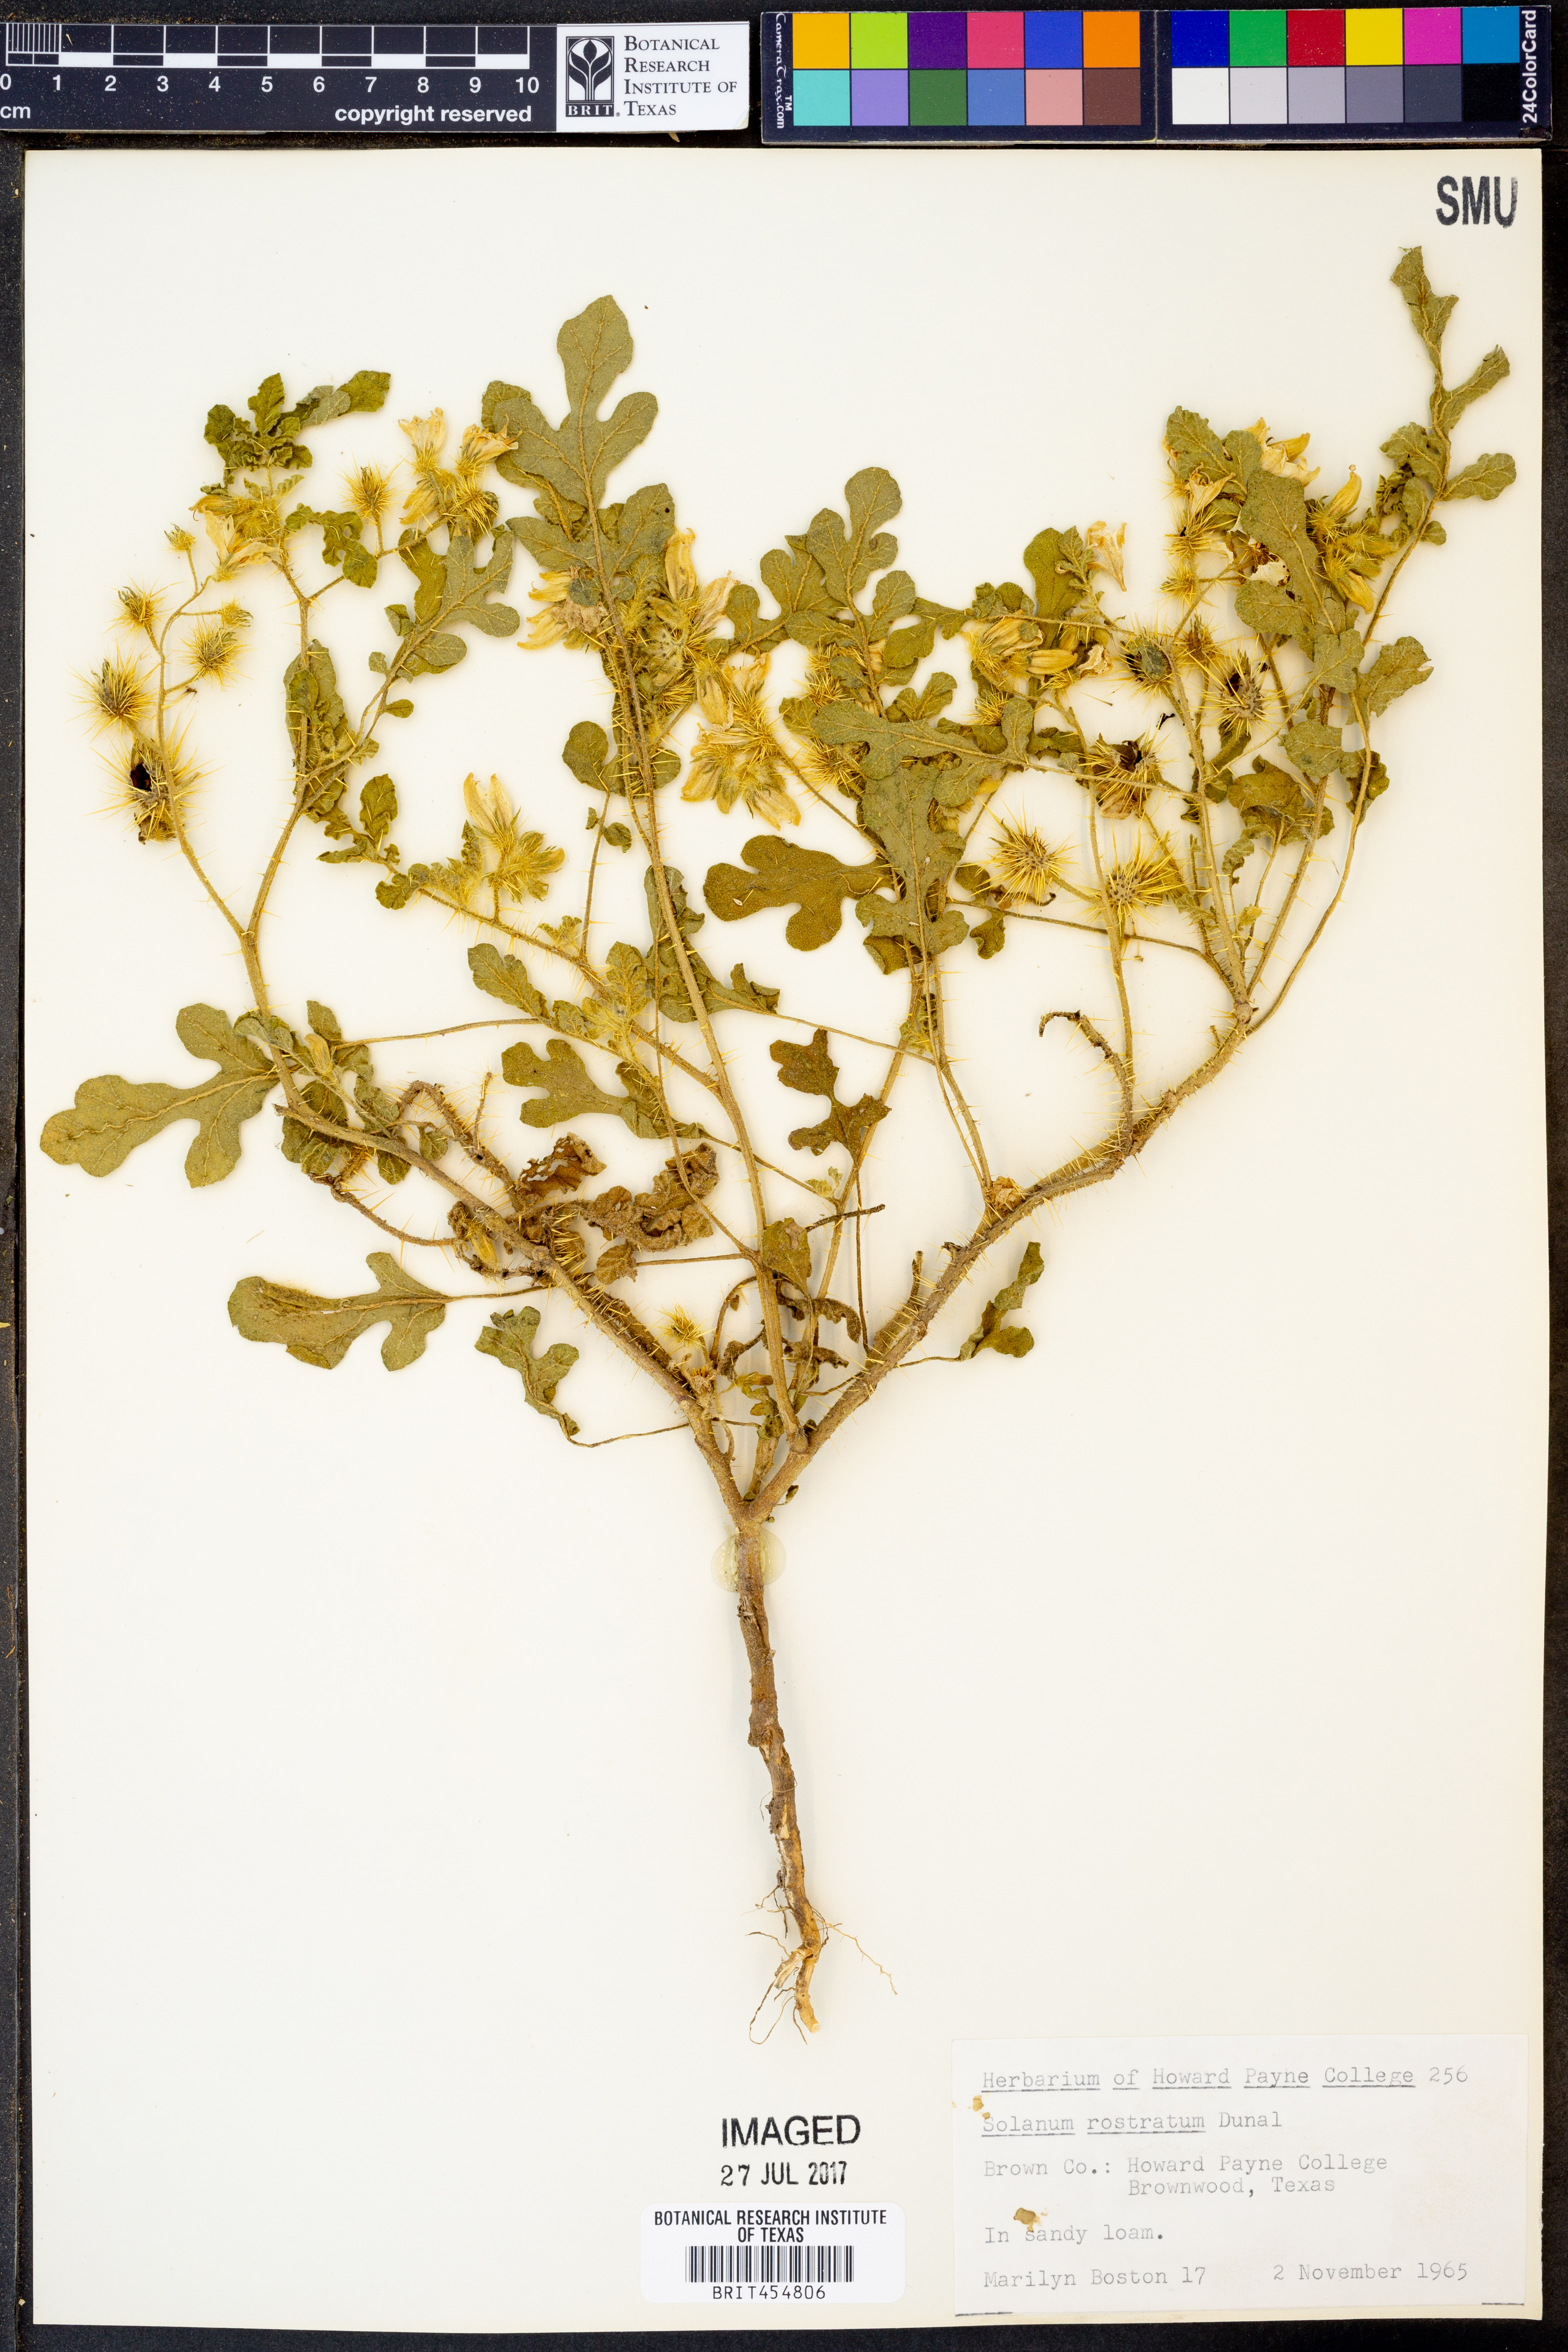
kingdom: Plantae
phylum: Tracheophyta
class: Magnoliopsida
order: Solanales
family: Solanaceae
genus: Solanum
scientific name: Solanum angustifolium
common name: Buffalobur nightshade
